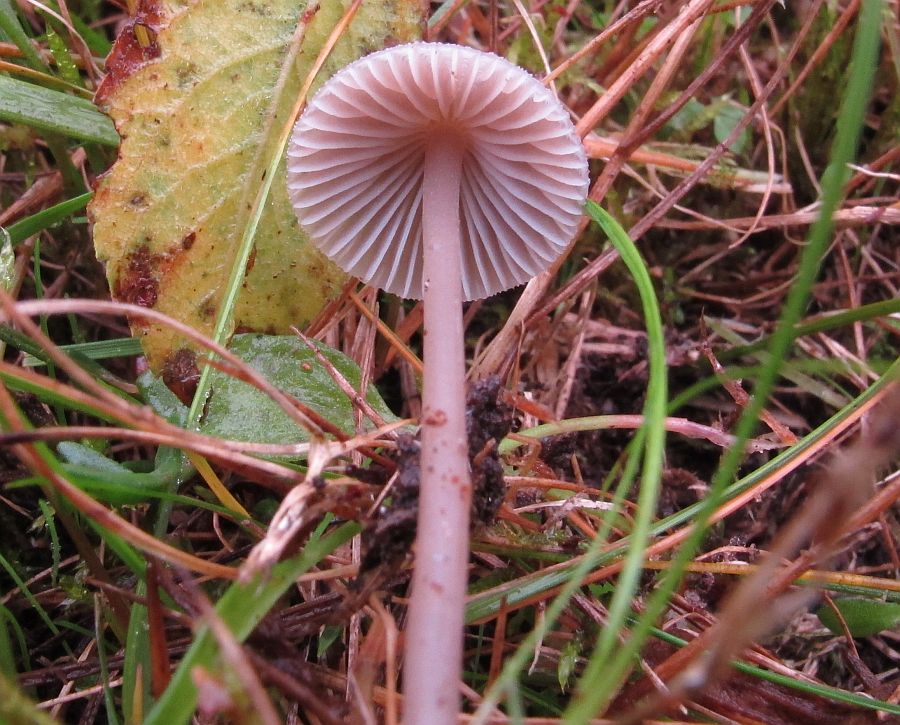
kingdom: Fungi
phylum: Basidiomycota
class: Agaricomycetes
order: Agaricales
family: Mycenaceae
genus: Mycena
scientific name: Mycena leptocephala
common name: klor-huesvamp
